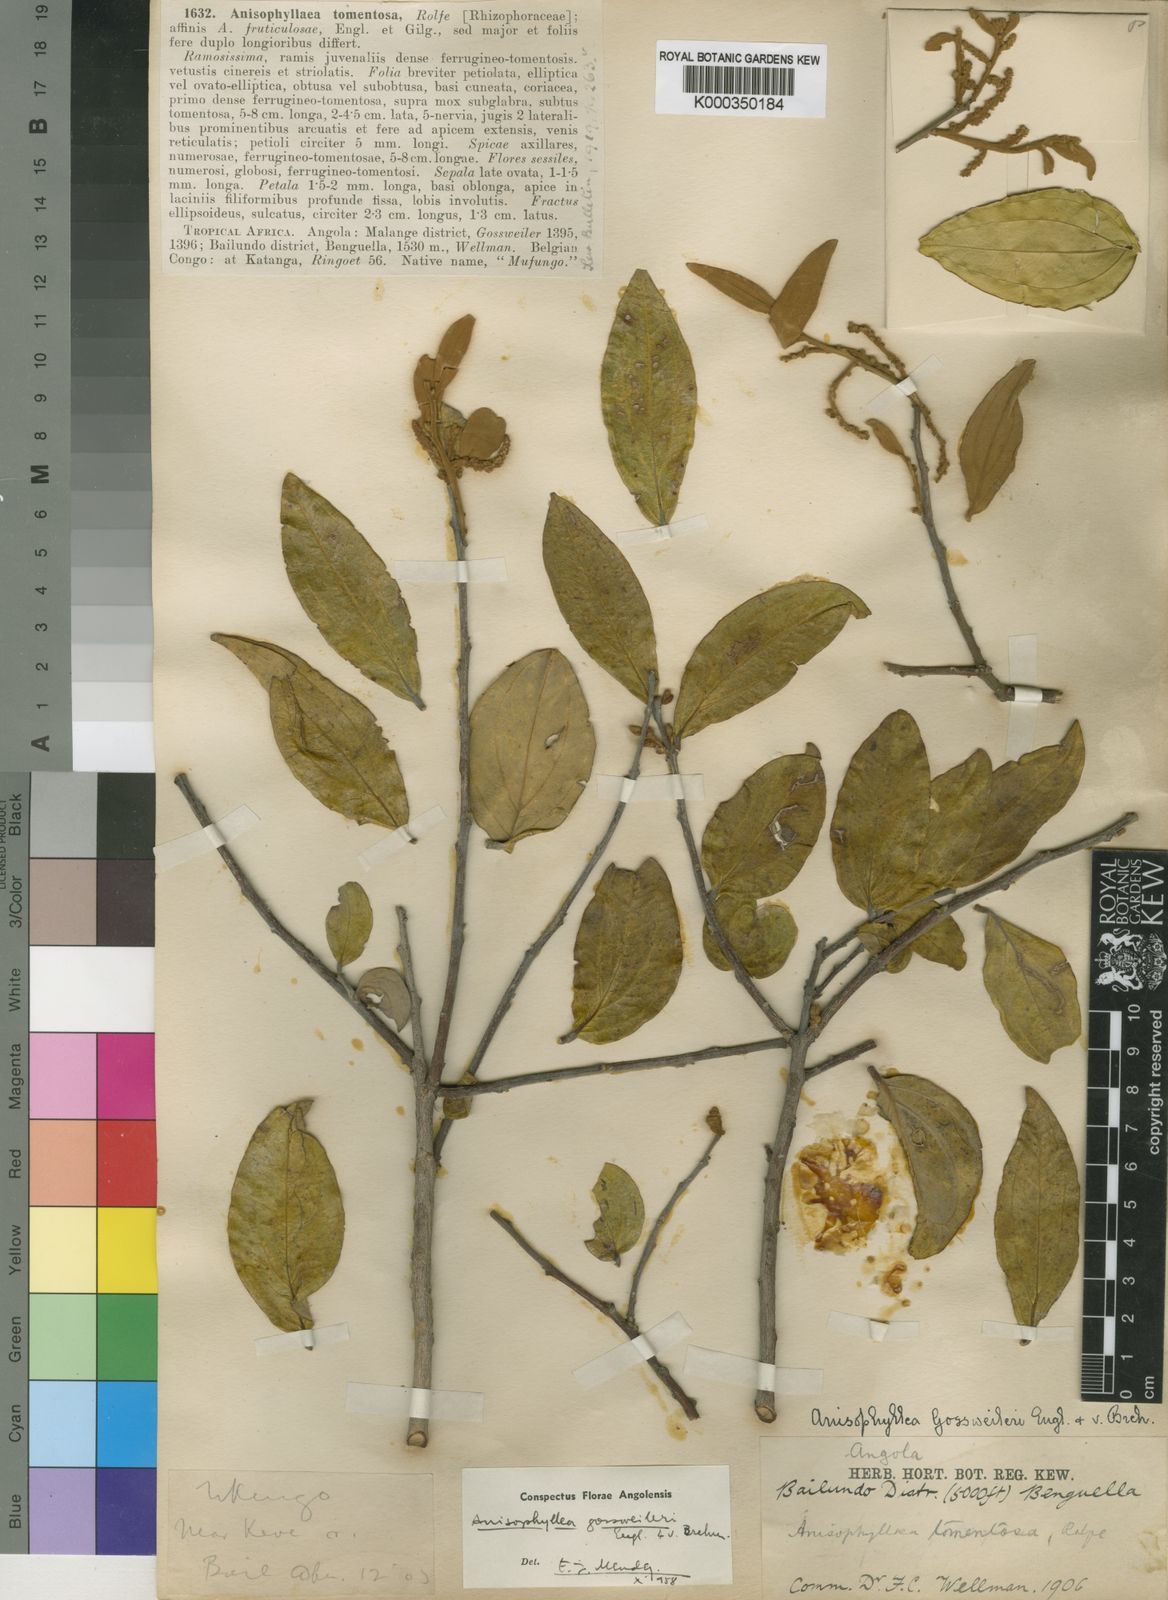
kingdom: Plantae
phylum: Tracheophyta
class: Magnoliopsida
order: Cucurbitales
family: Anisophylleaceae
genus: Anisophyllea
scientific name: Anisophyllea boehmii
